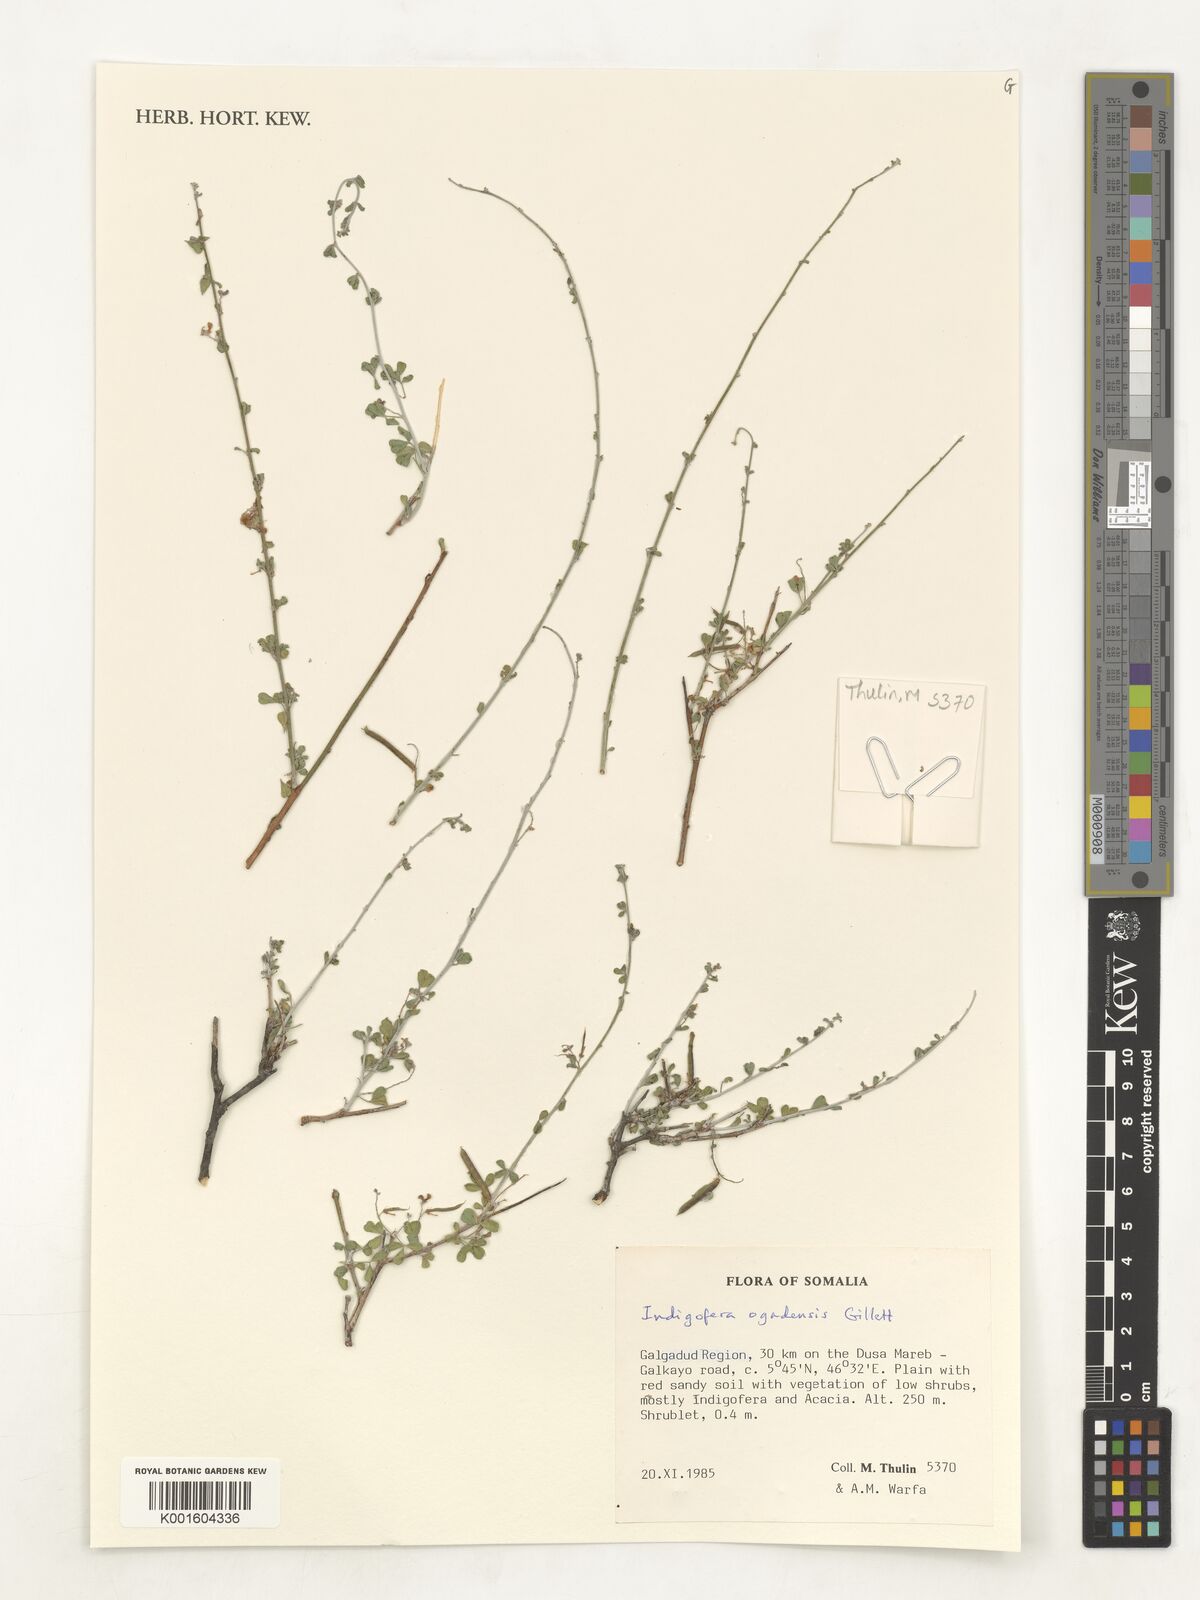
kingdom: Plantae
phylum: Tracheophyta
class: Magnoliopsida
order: Fabales
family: Fabaceae
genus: Indigofera
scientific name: Indigofera ogadensis
